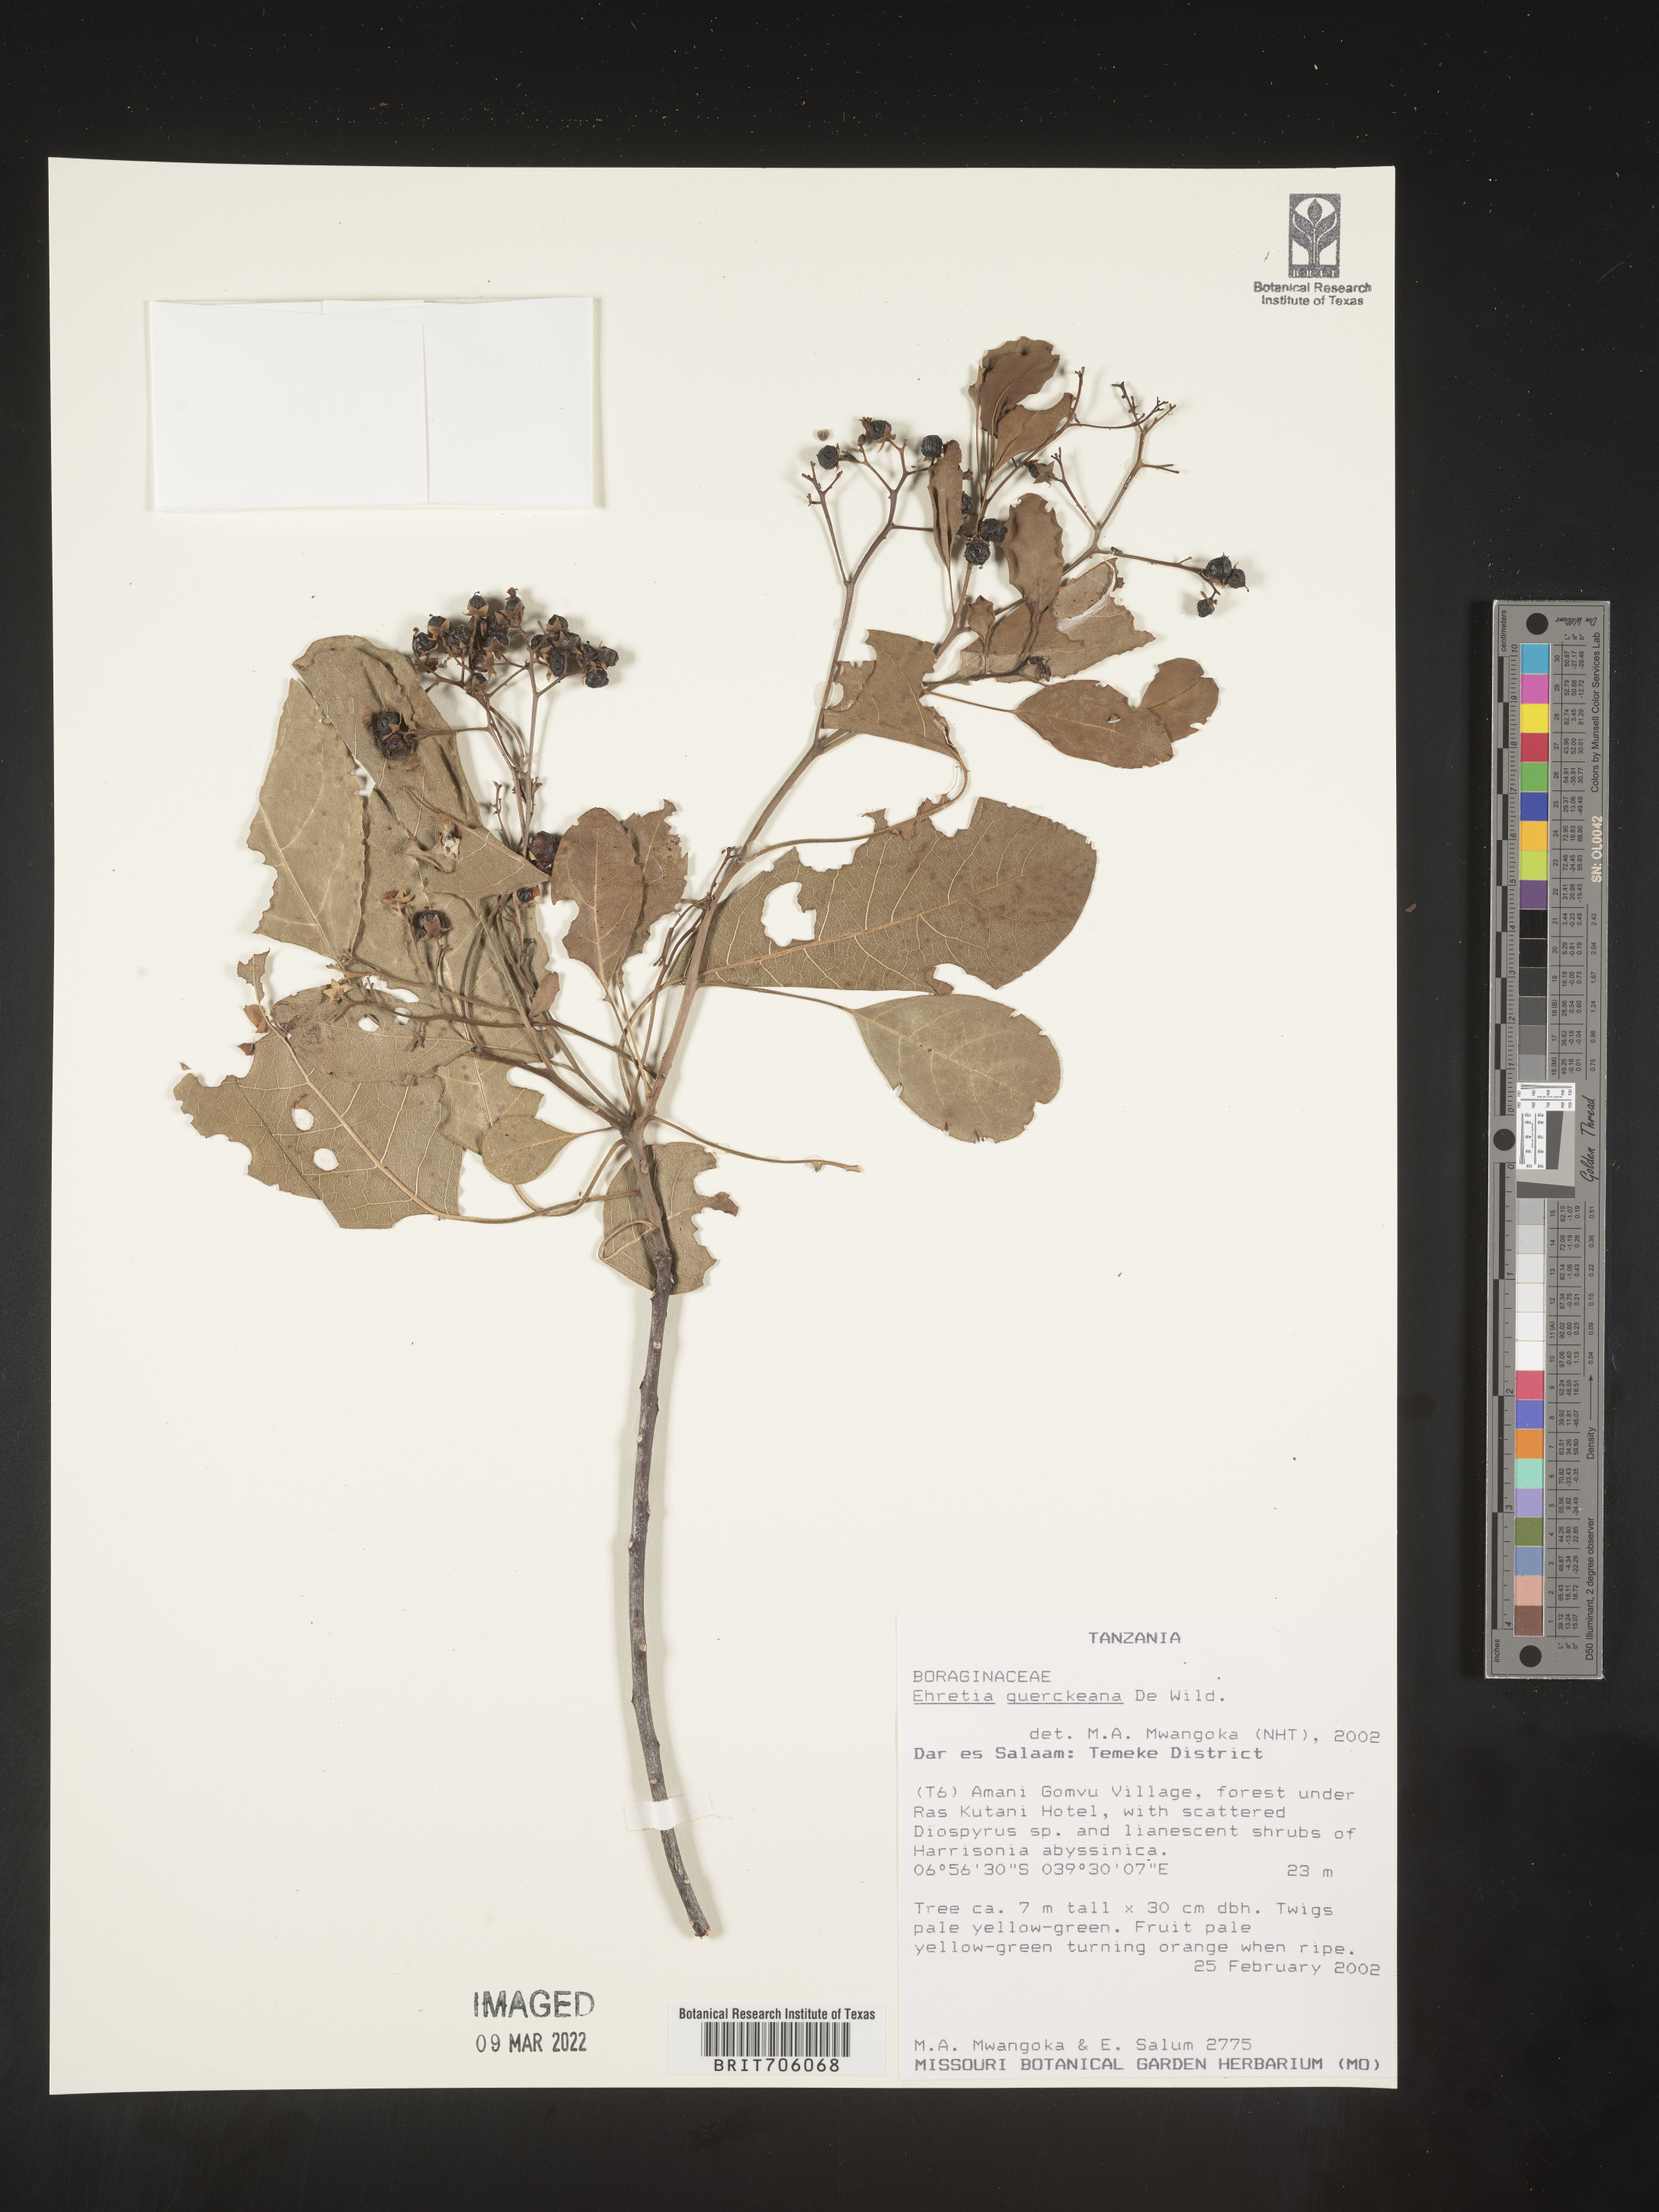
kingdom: Plantae
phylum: Tracheophyta
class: Magnoliopsida
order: Boraginales
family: Ehretiaceae
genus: Ehretia
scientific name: Ehretia
